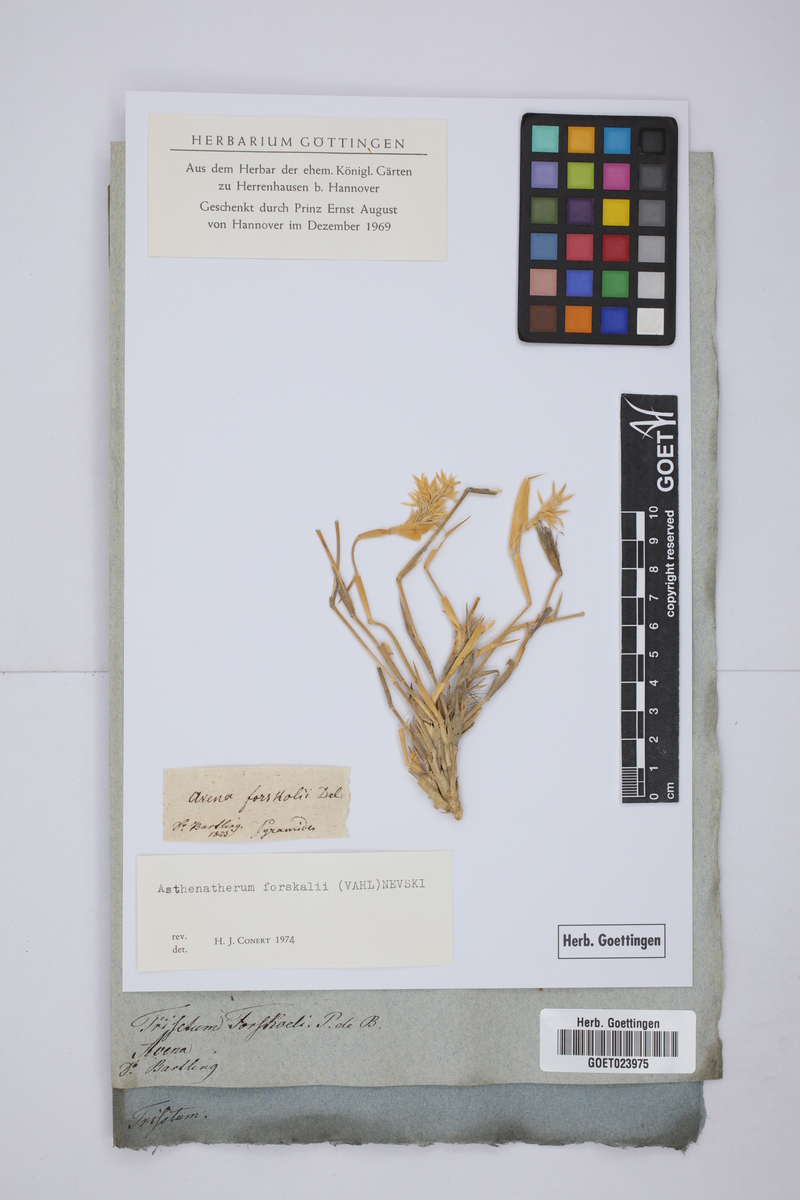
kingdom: Plantae
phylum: Tracheophyta
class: Liliopsida
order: Poales
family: Poaceae
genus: Centropodia
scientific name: Centropodia forsskalii
